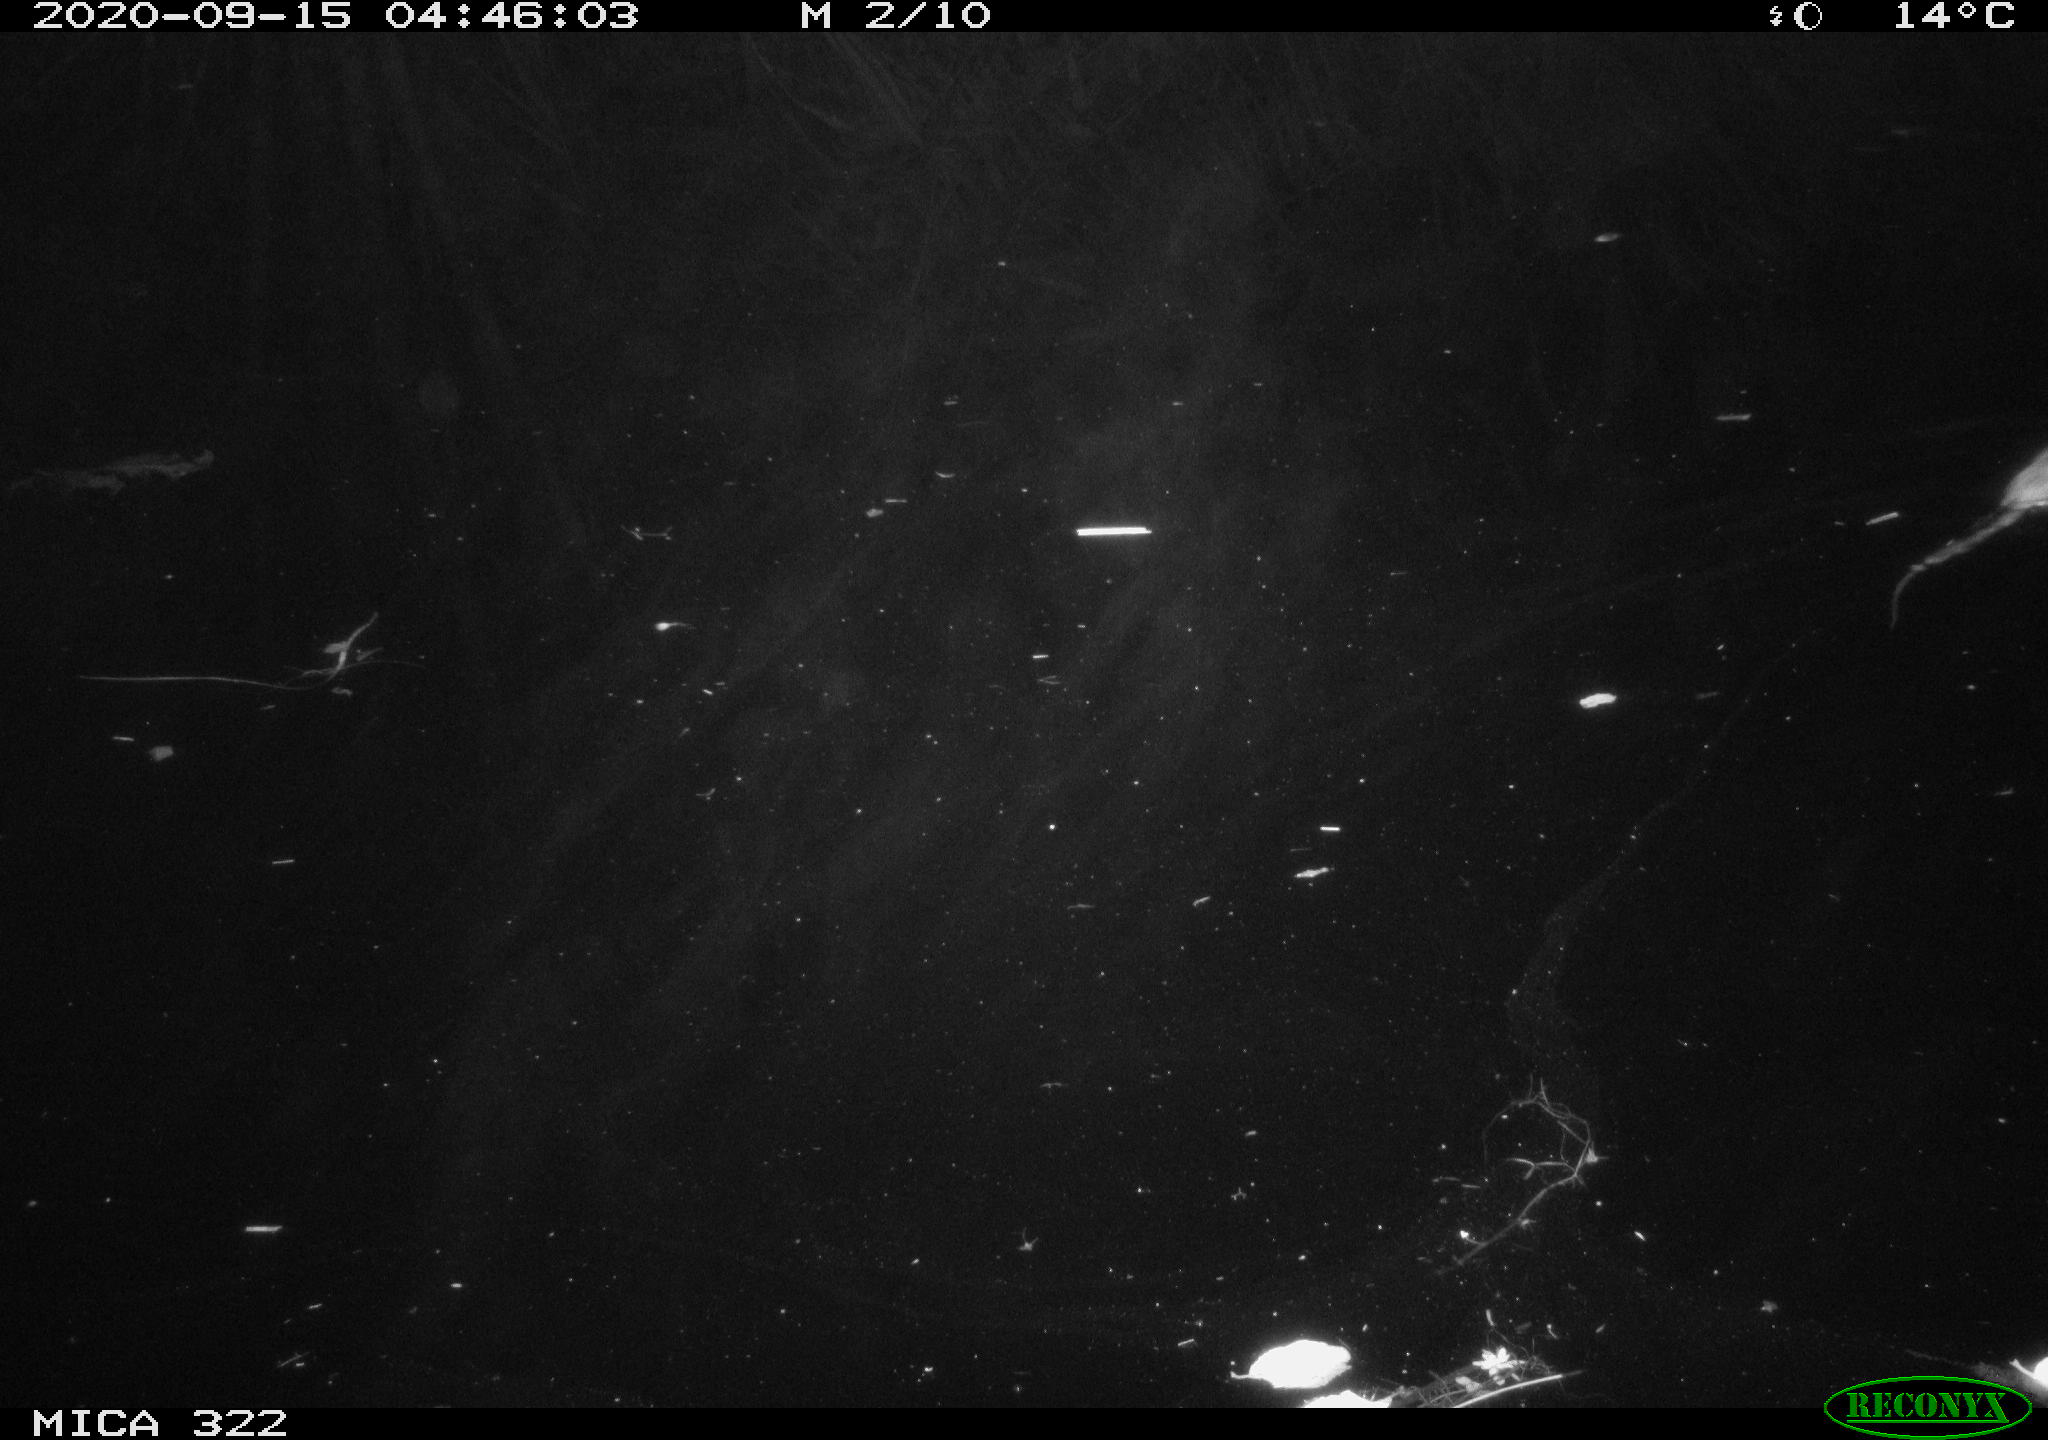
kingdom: Animalia
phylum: Chordata
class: Mammalia
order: Rodentia
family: Muridae
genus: Rattus
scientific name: Rattus norvegicus
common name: Brown rat
